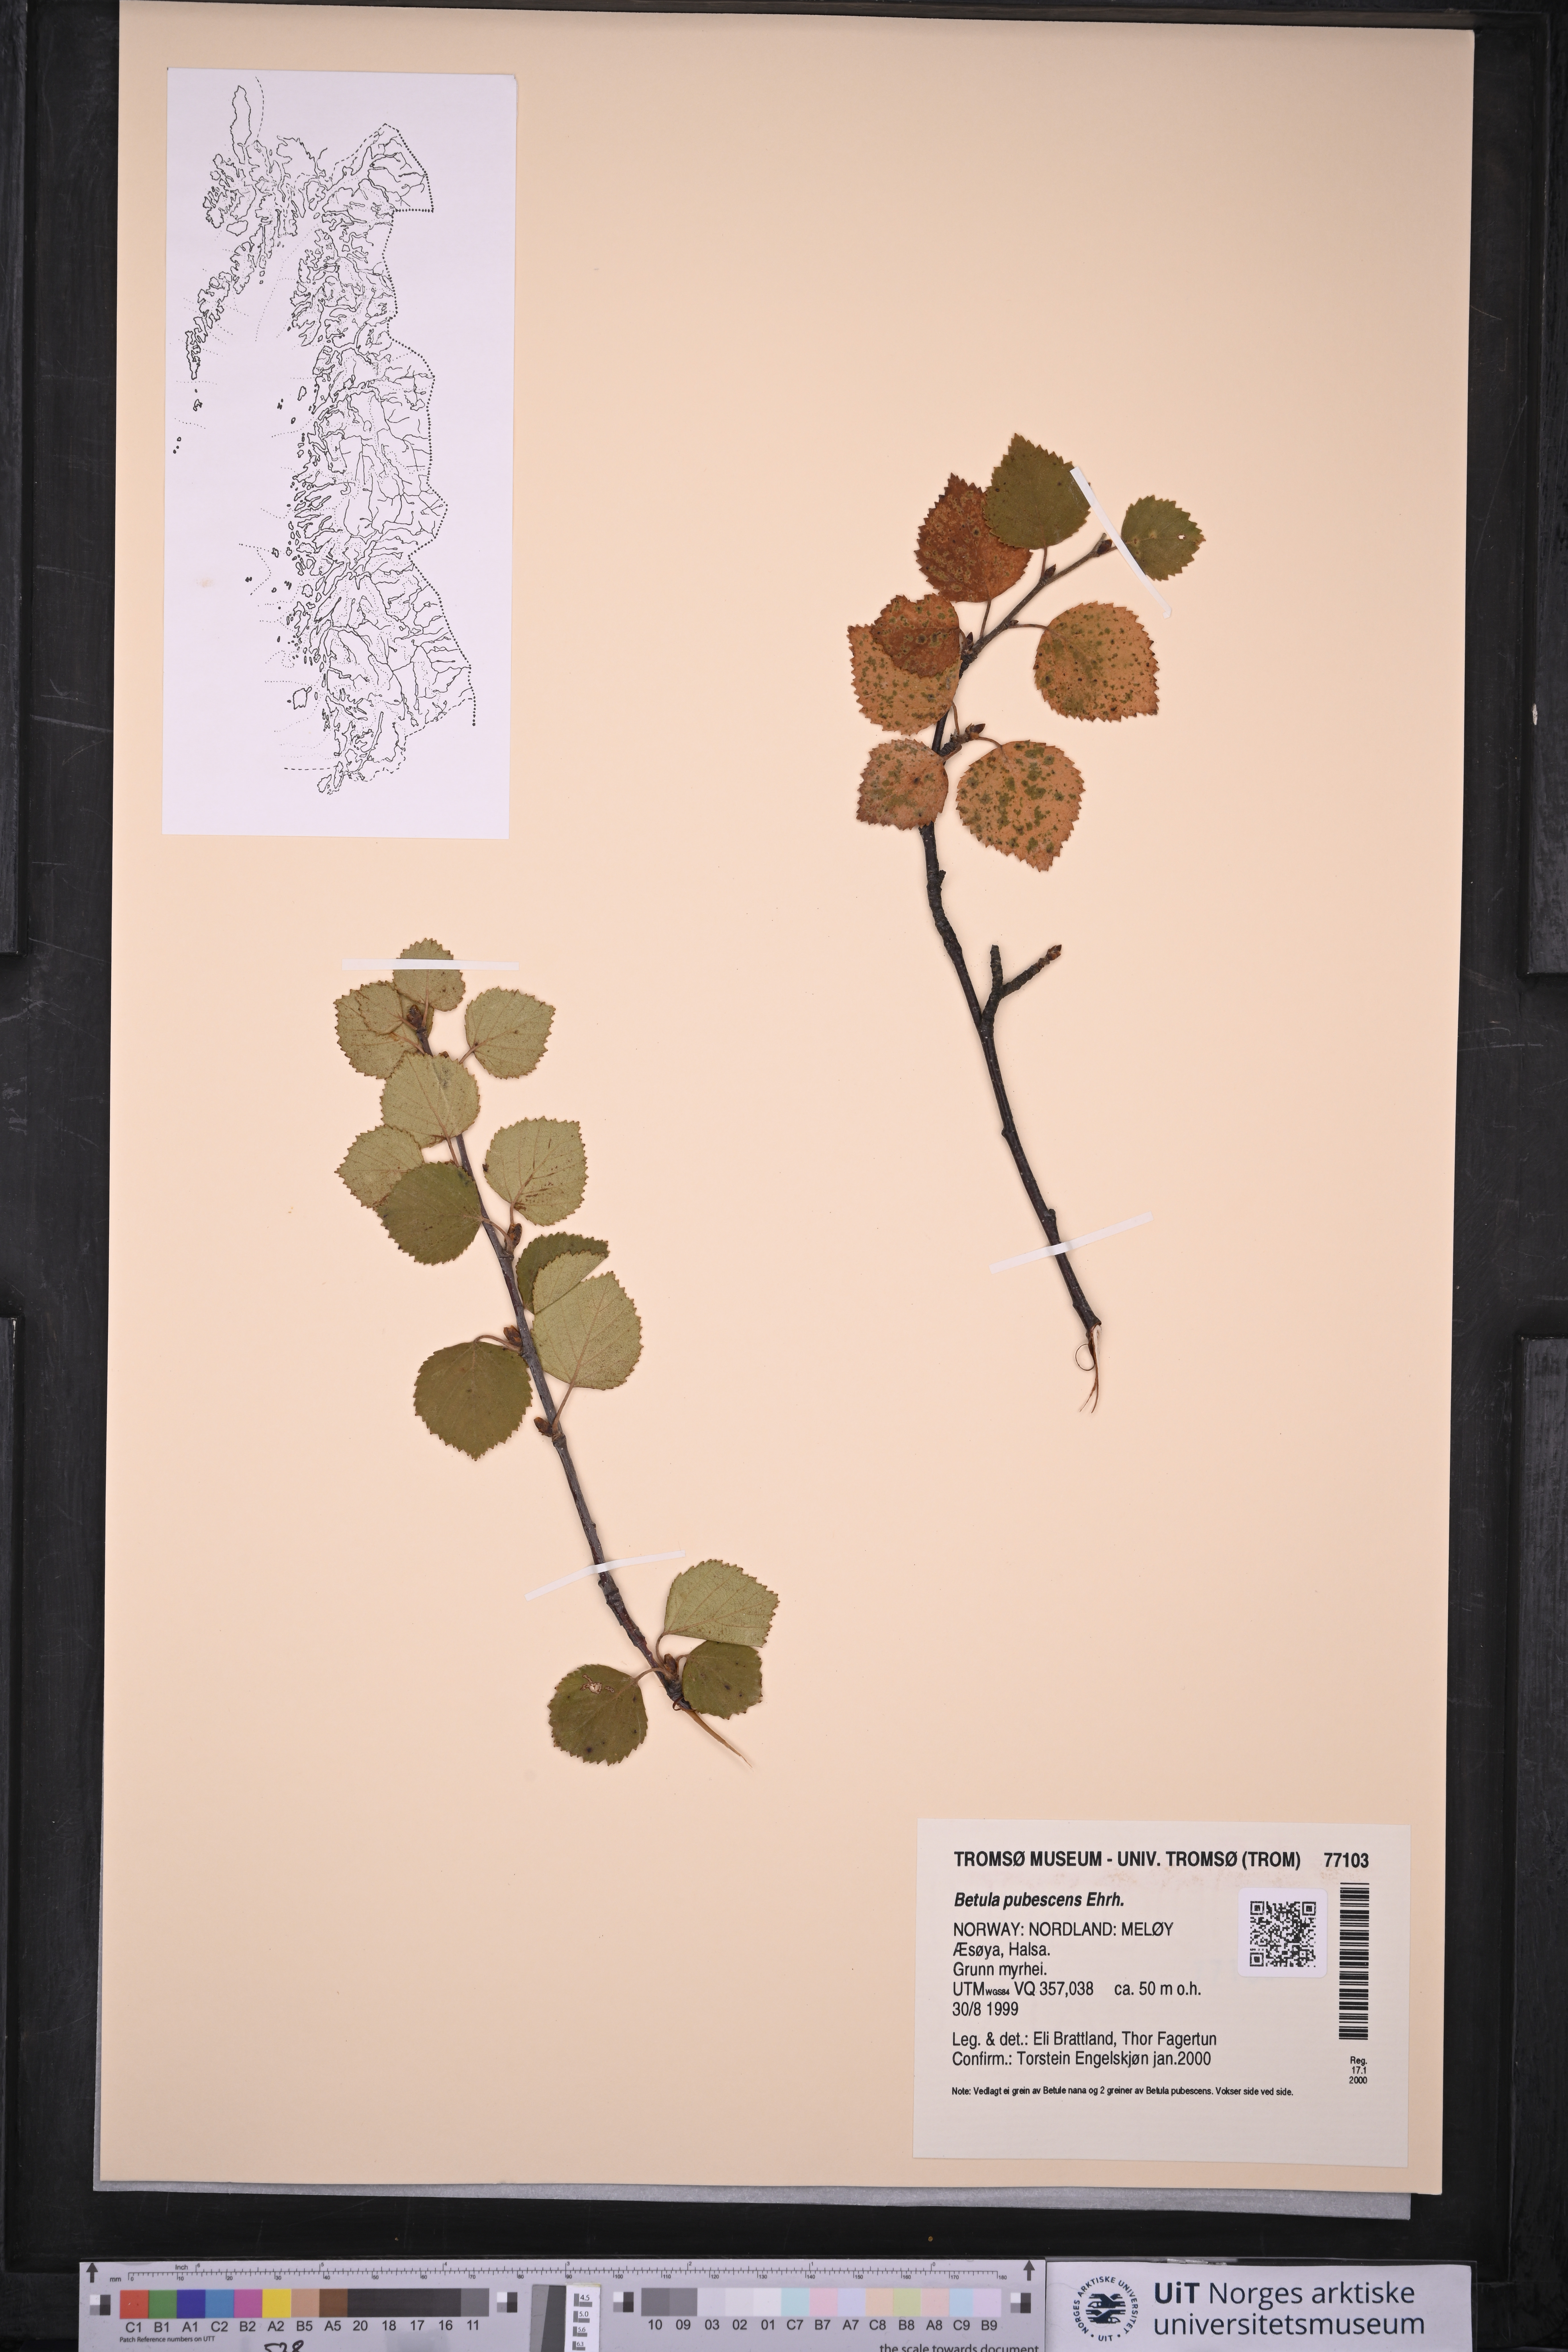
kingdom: Plantae
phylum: Tracheophyta
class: Magnoliopsida
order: Fagales
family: Betulaceae
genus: Betula
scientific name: Betula pubescens
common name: Downy birch
